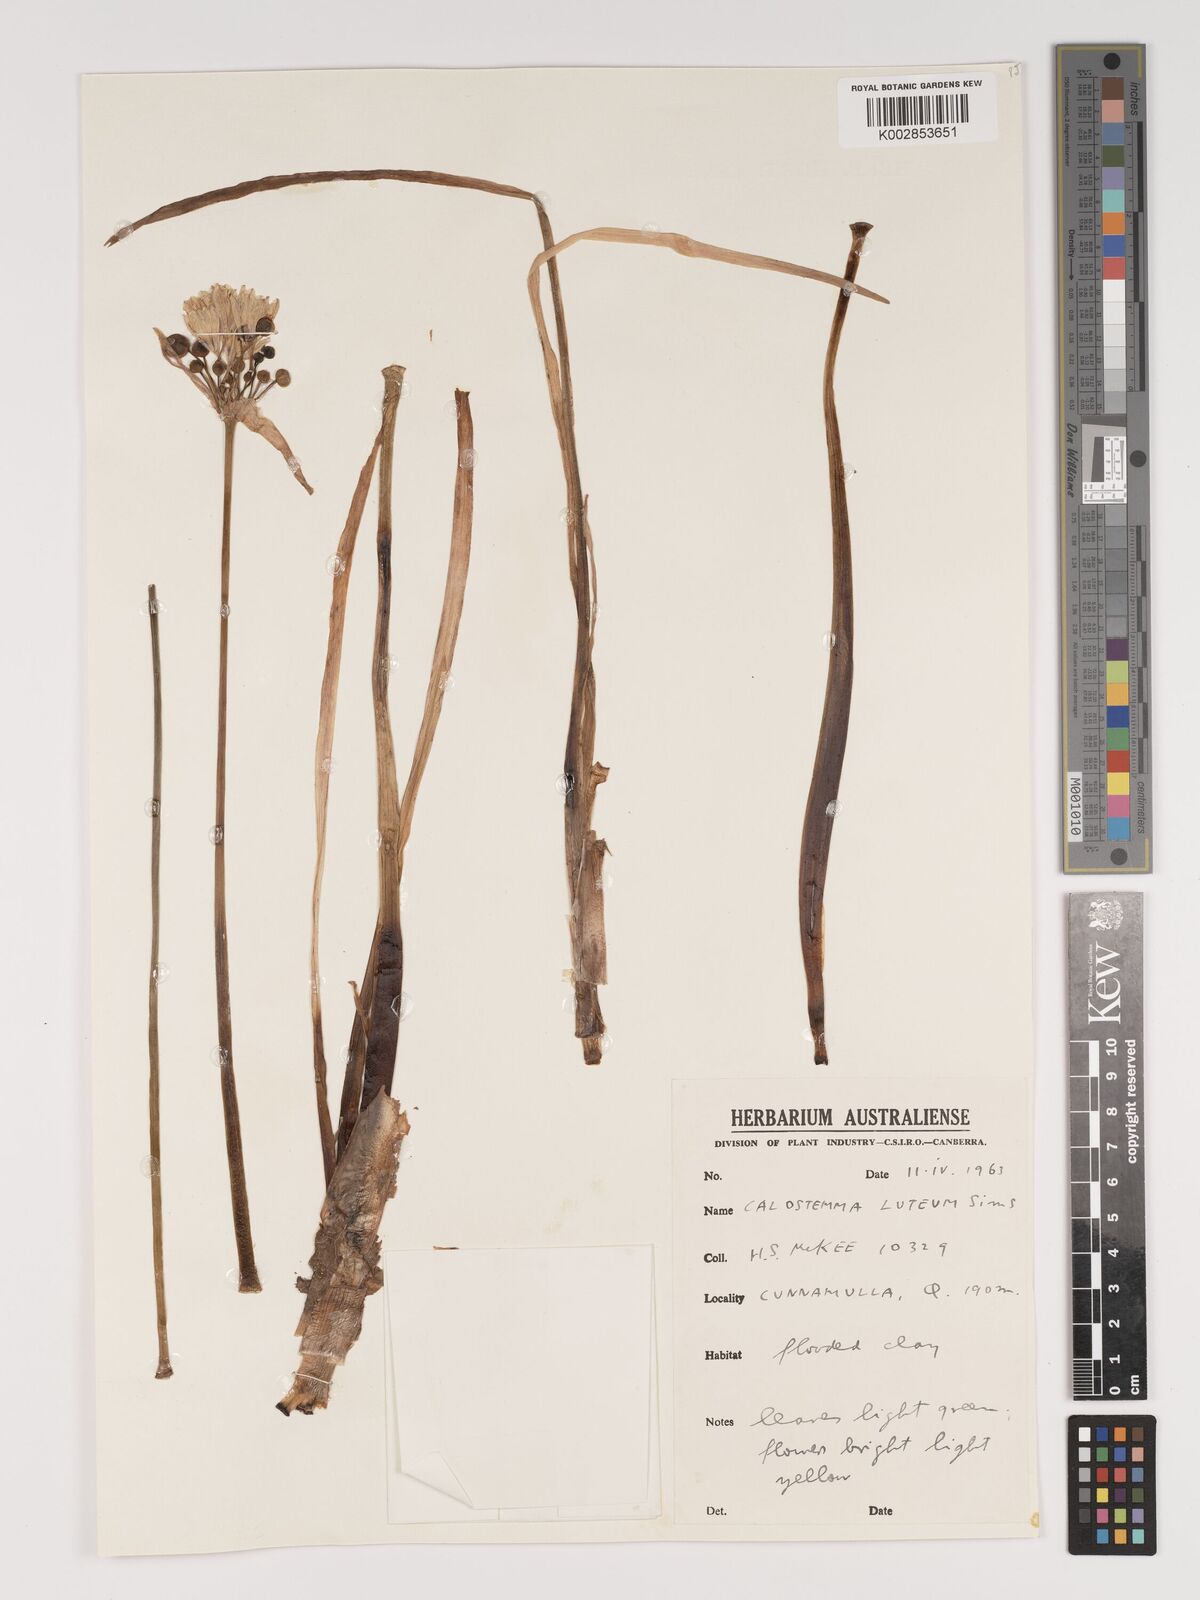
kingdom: Plantae
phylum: Tracheophyta
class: Liliopsida
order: Asparagales
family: Amaryllidaceae
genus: Calostemma
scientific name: Calostemma luteum
